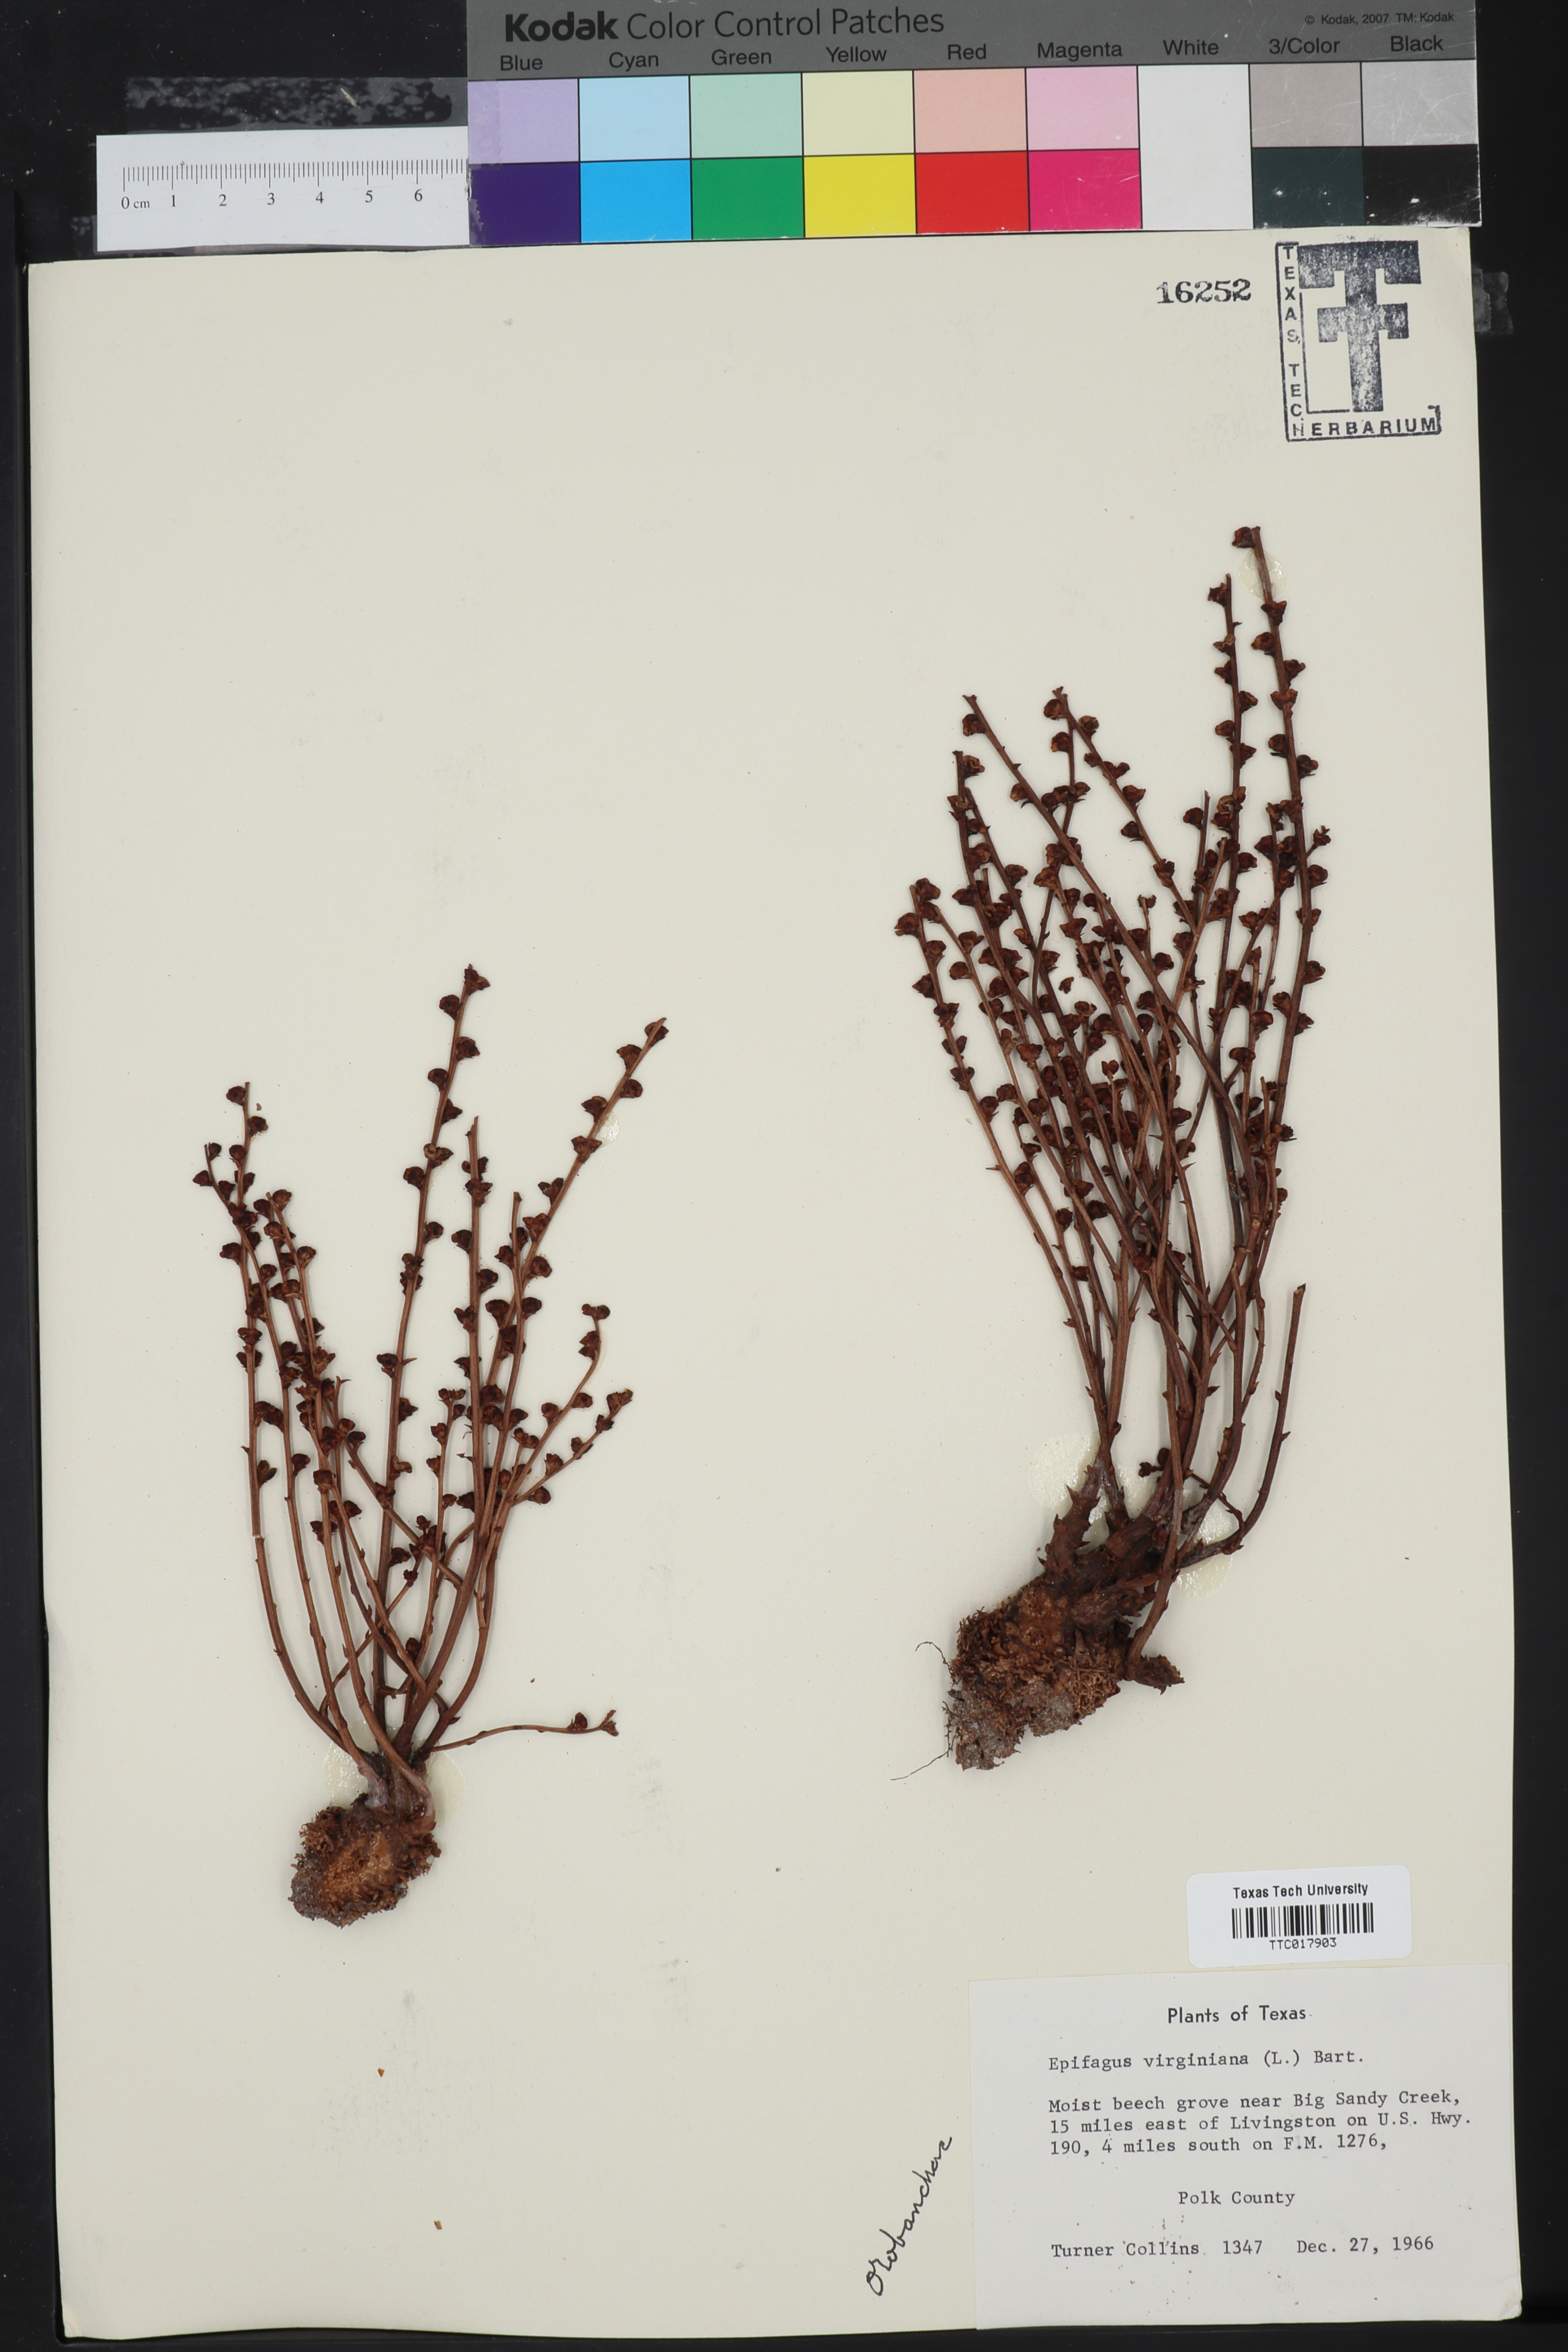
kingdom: Plantae
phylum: Tracheophyta
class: Magnoliopsida
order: Lamiales
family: Orobanchaceae
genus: Epifagus
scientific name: Epifagus virginiana
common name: Beechdrops
